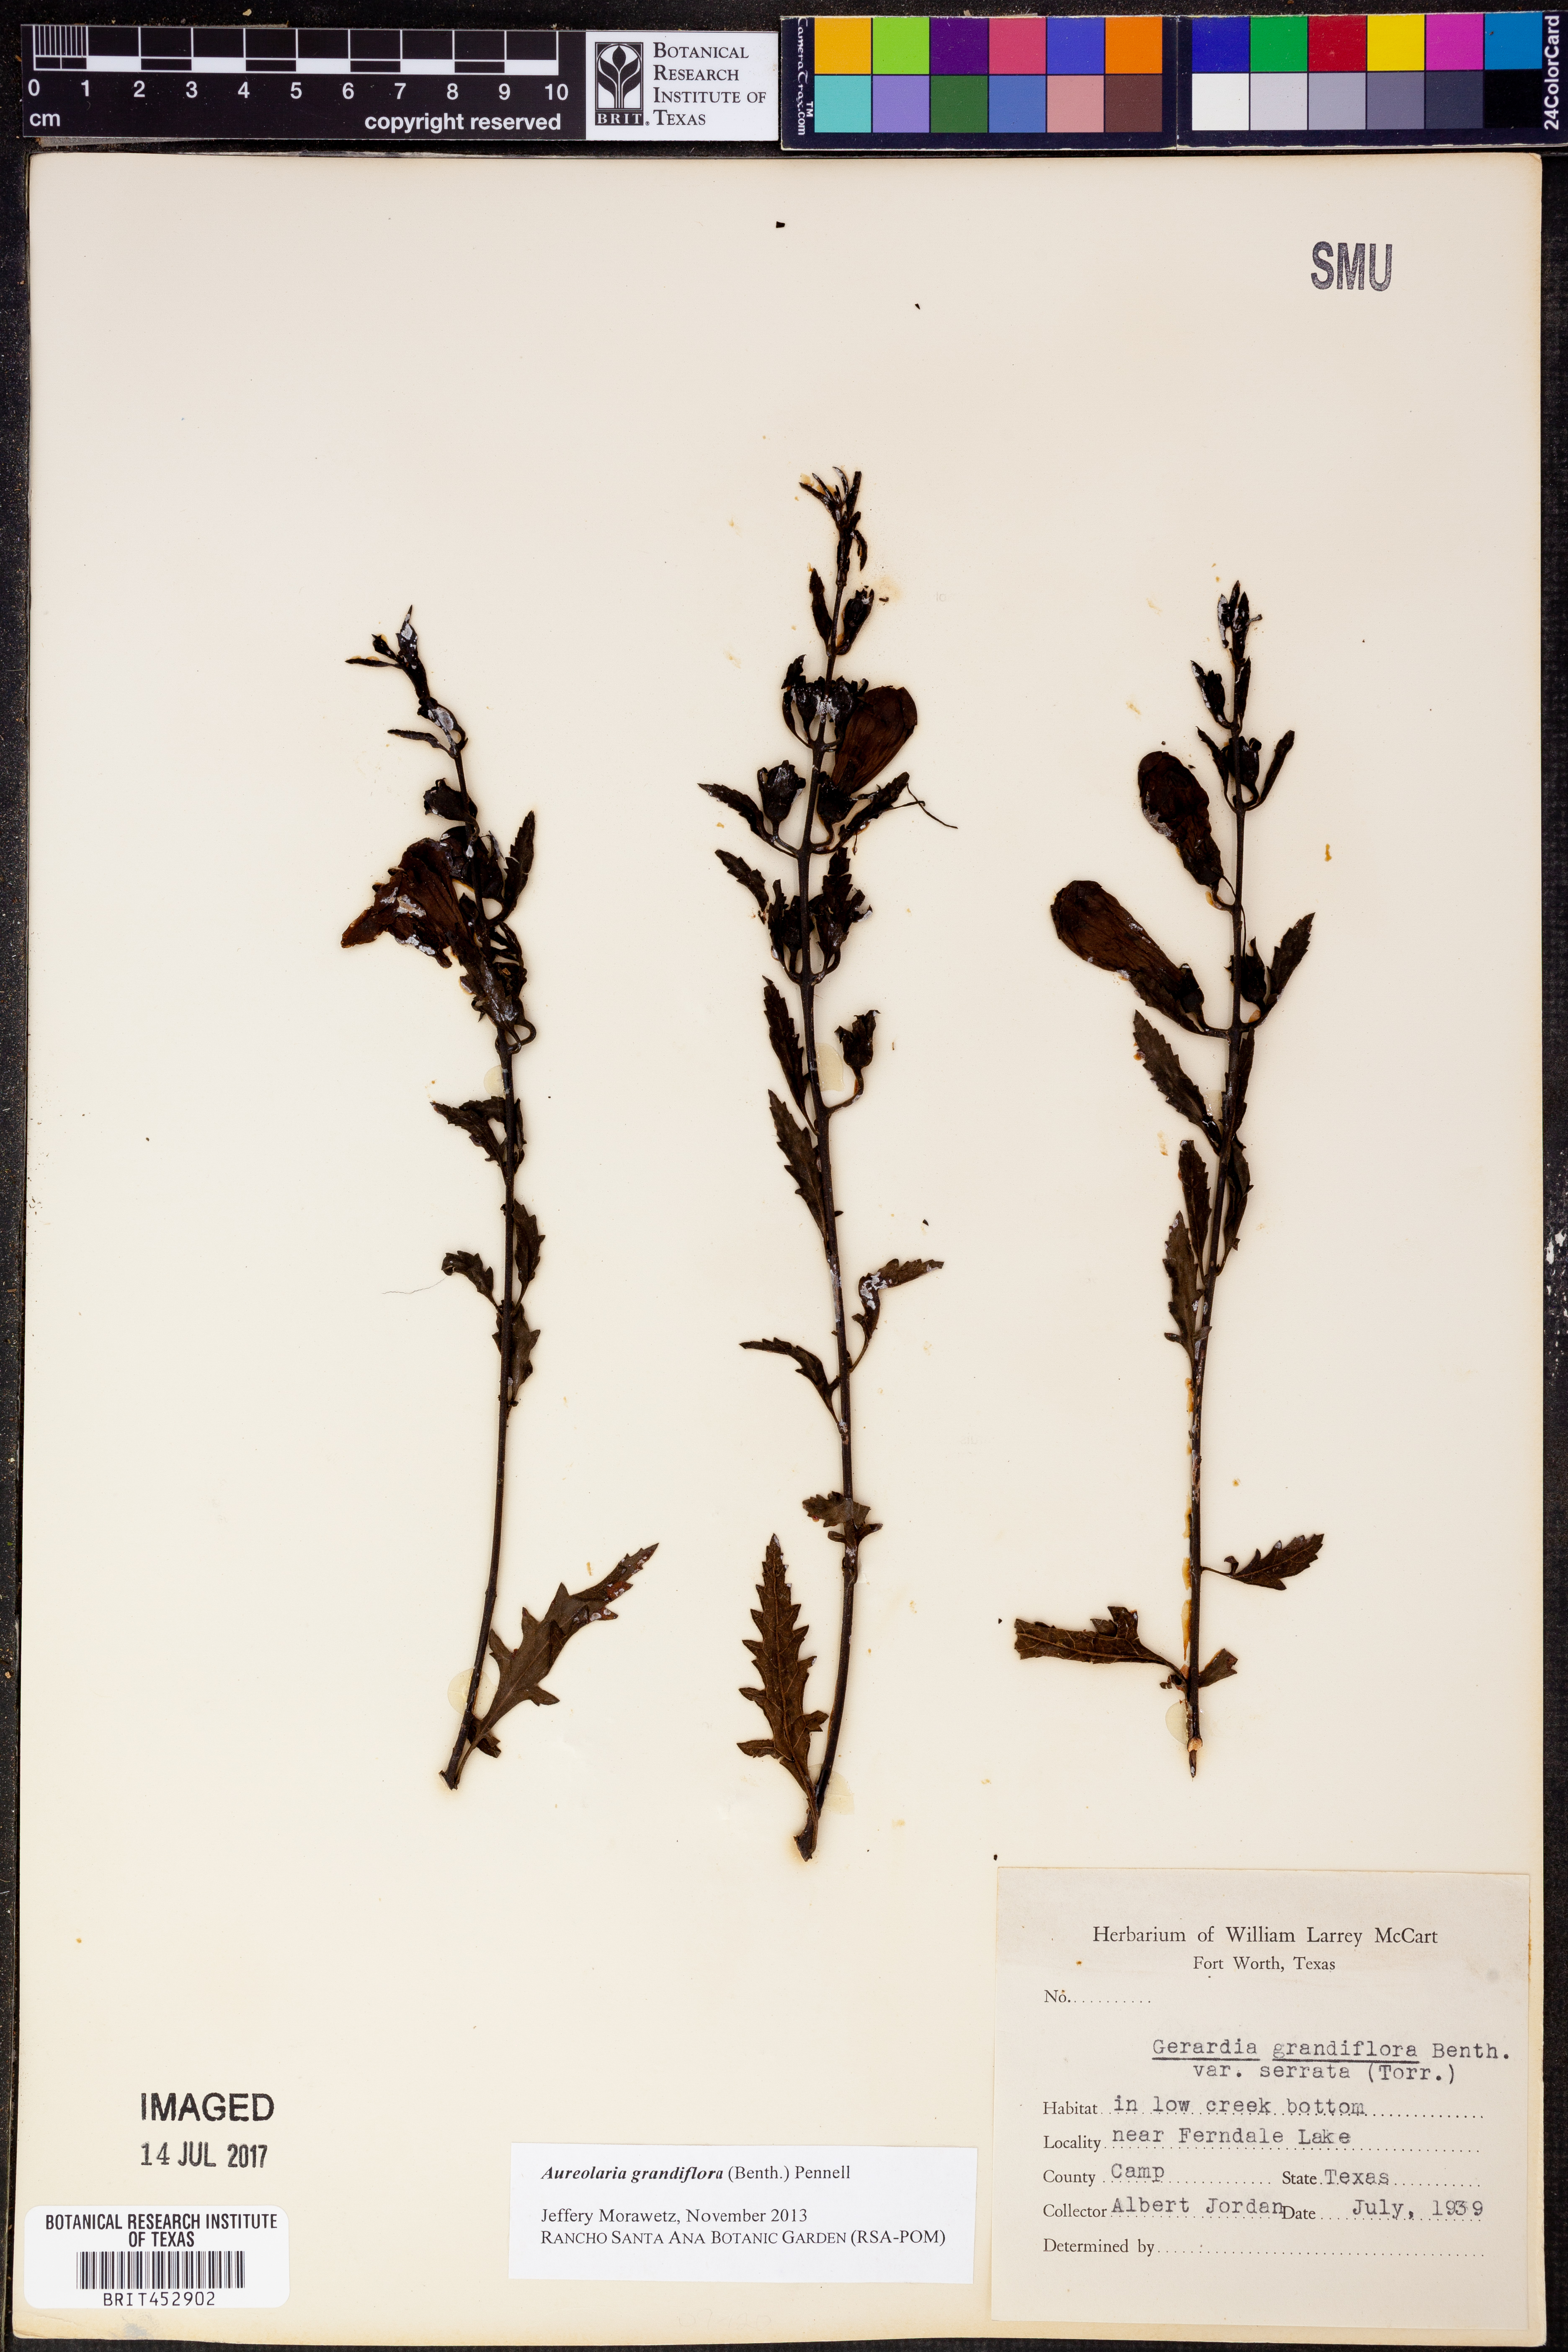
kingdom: Plantae
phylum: Tracheophyta
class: Magnoliopsida
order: Lamiales
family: Orobanchaceae
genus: Aureolaria
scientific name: Aureolaria grandiflora
